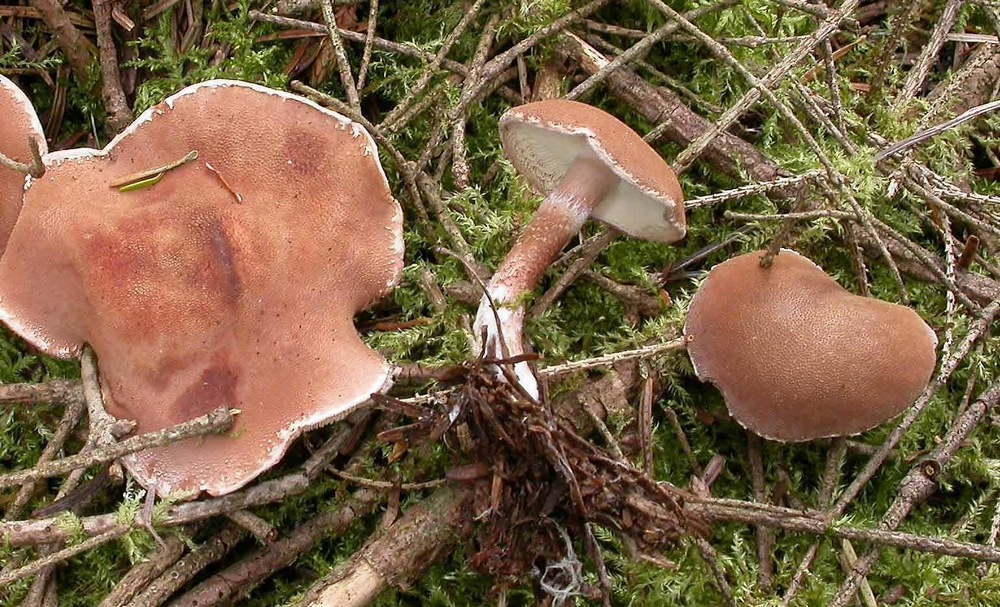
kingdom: Fungi
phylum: Basidiomycota
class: Agaricomycetes
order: Agaricales
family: Agaricaceae
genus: Cystodermella
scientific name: Cystodermella granulosa
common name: kliddet grynhat
